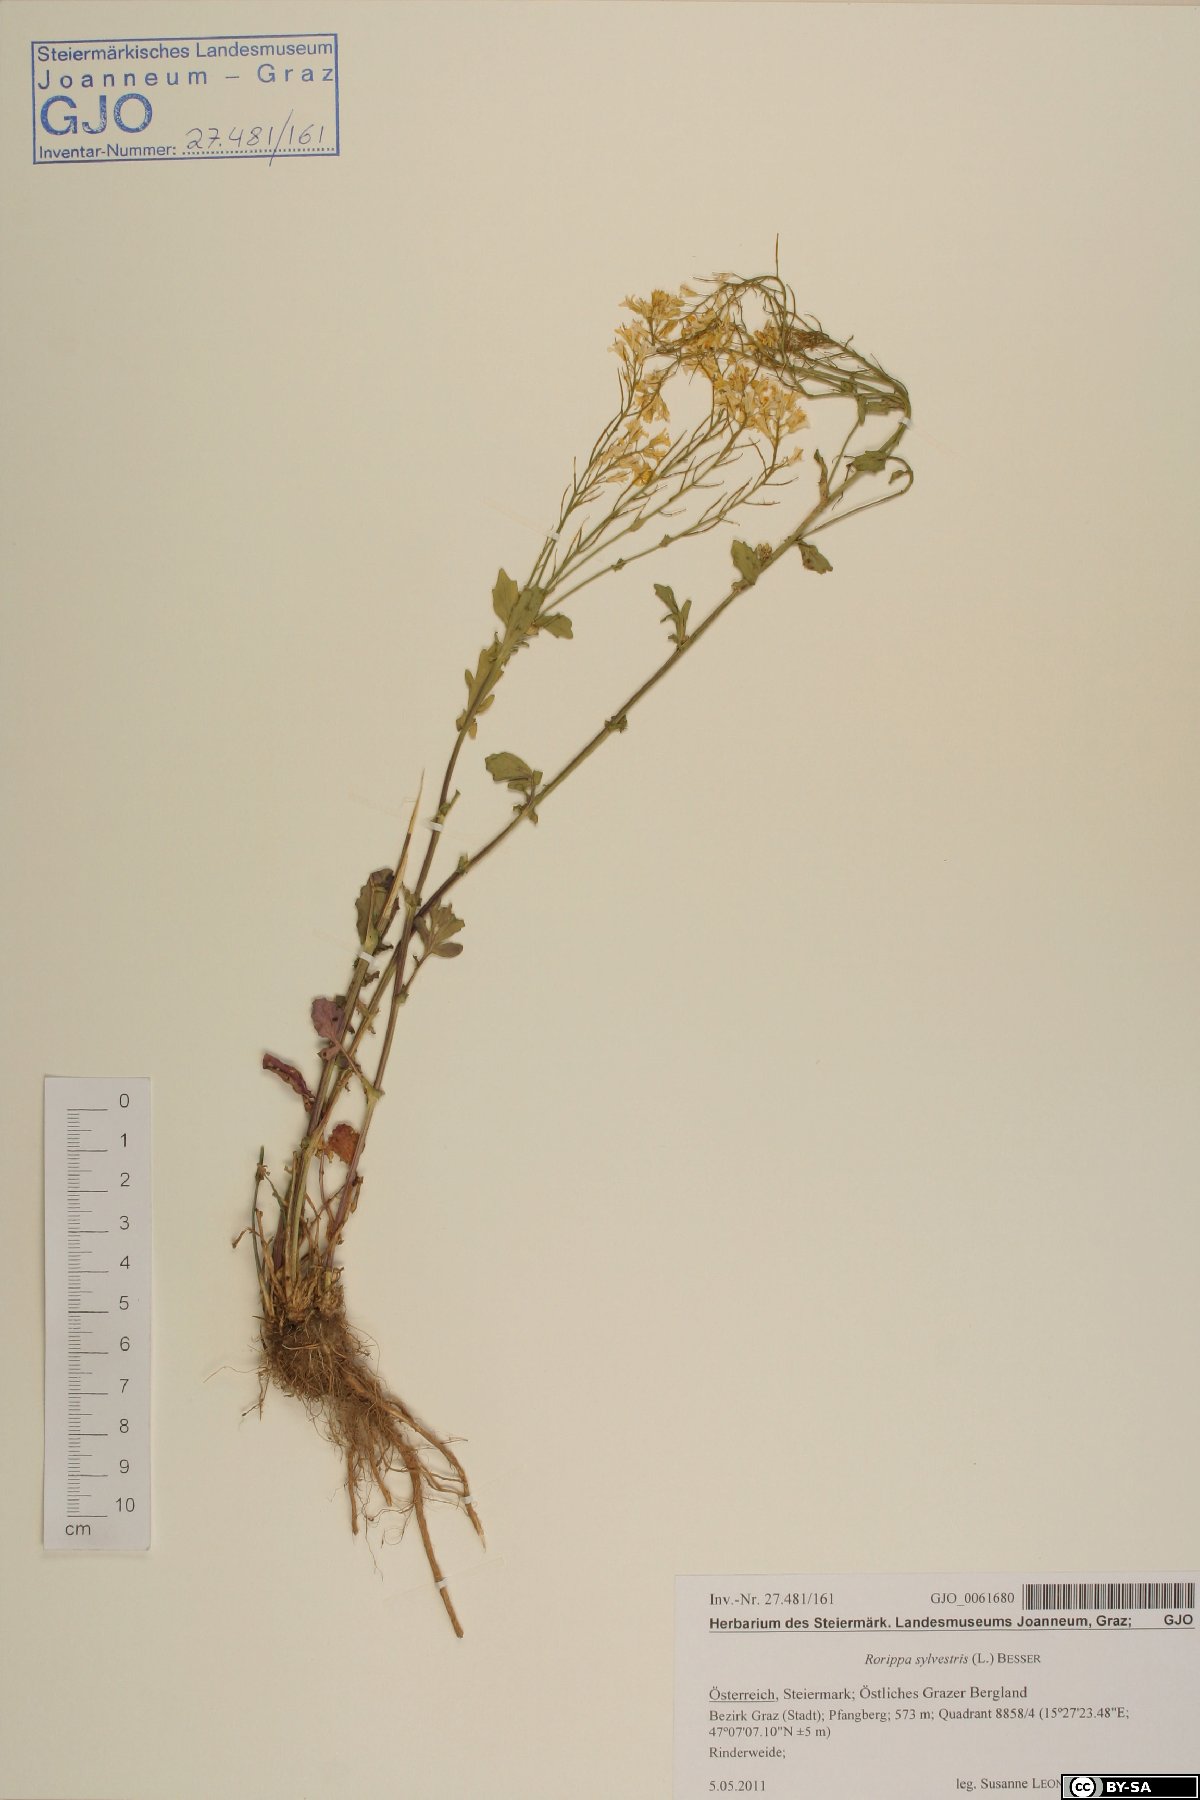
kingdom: Plantae
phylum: Tracheophyta
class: Magnoliopsida
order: Brassicales
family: Brassicaceae
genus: Rorippa
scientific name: Rorippa sylvestris
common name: Creeping yellowcress
